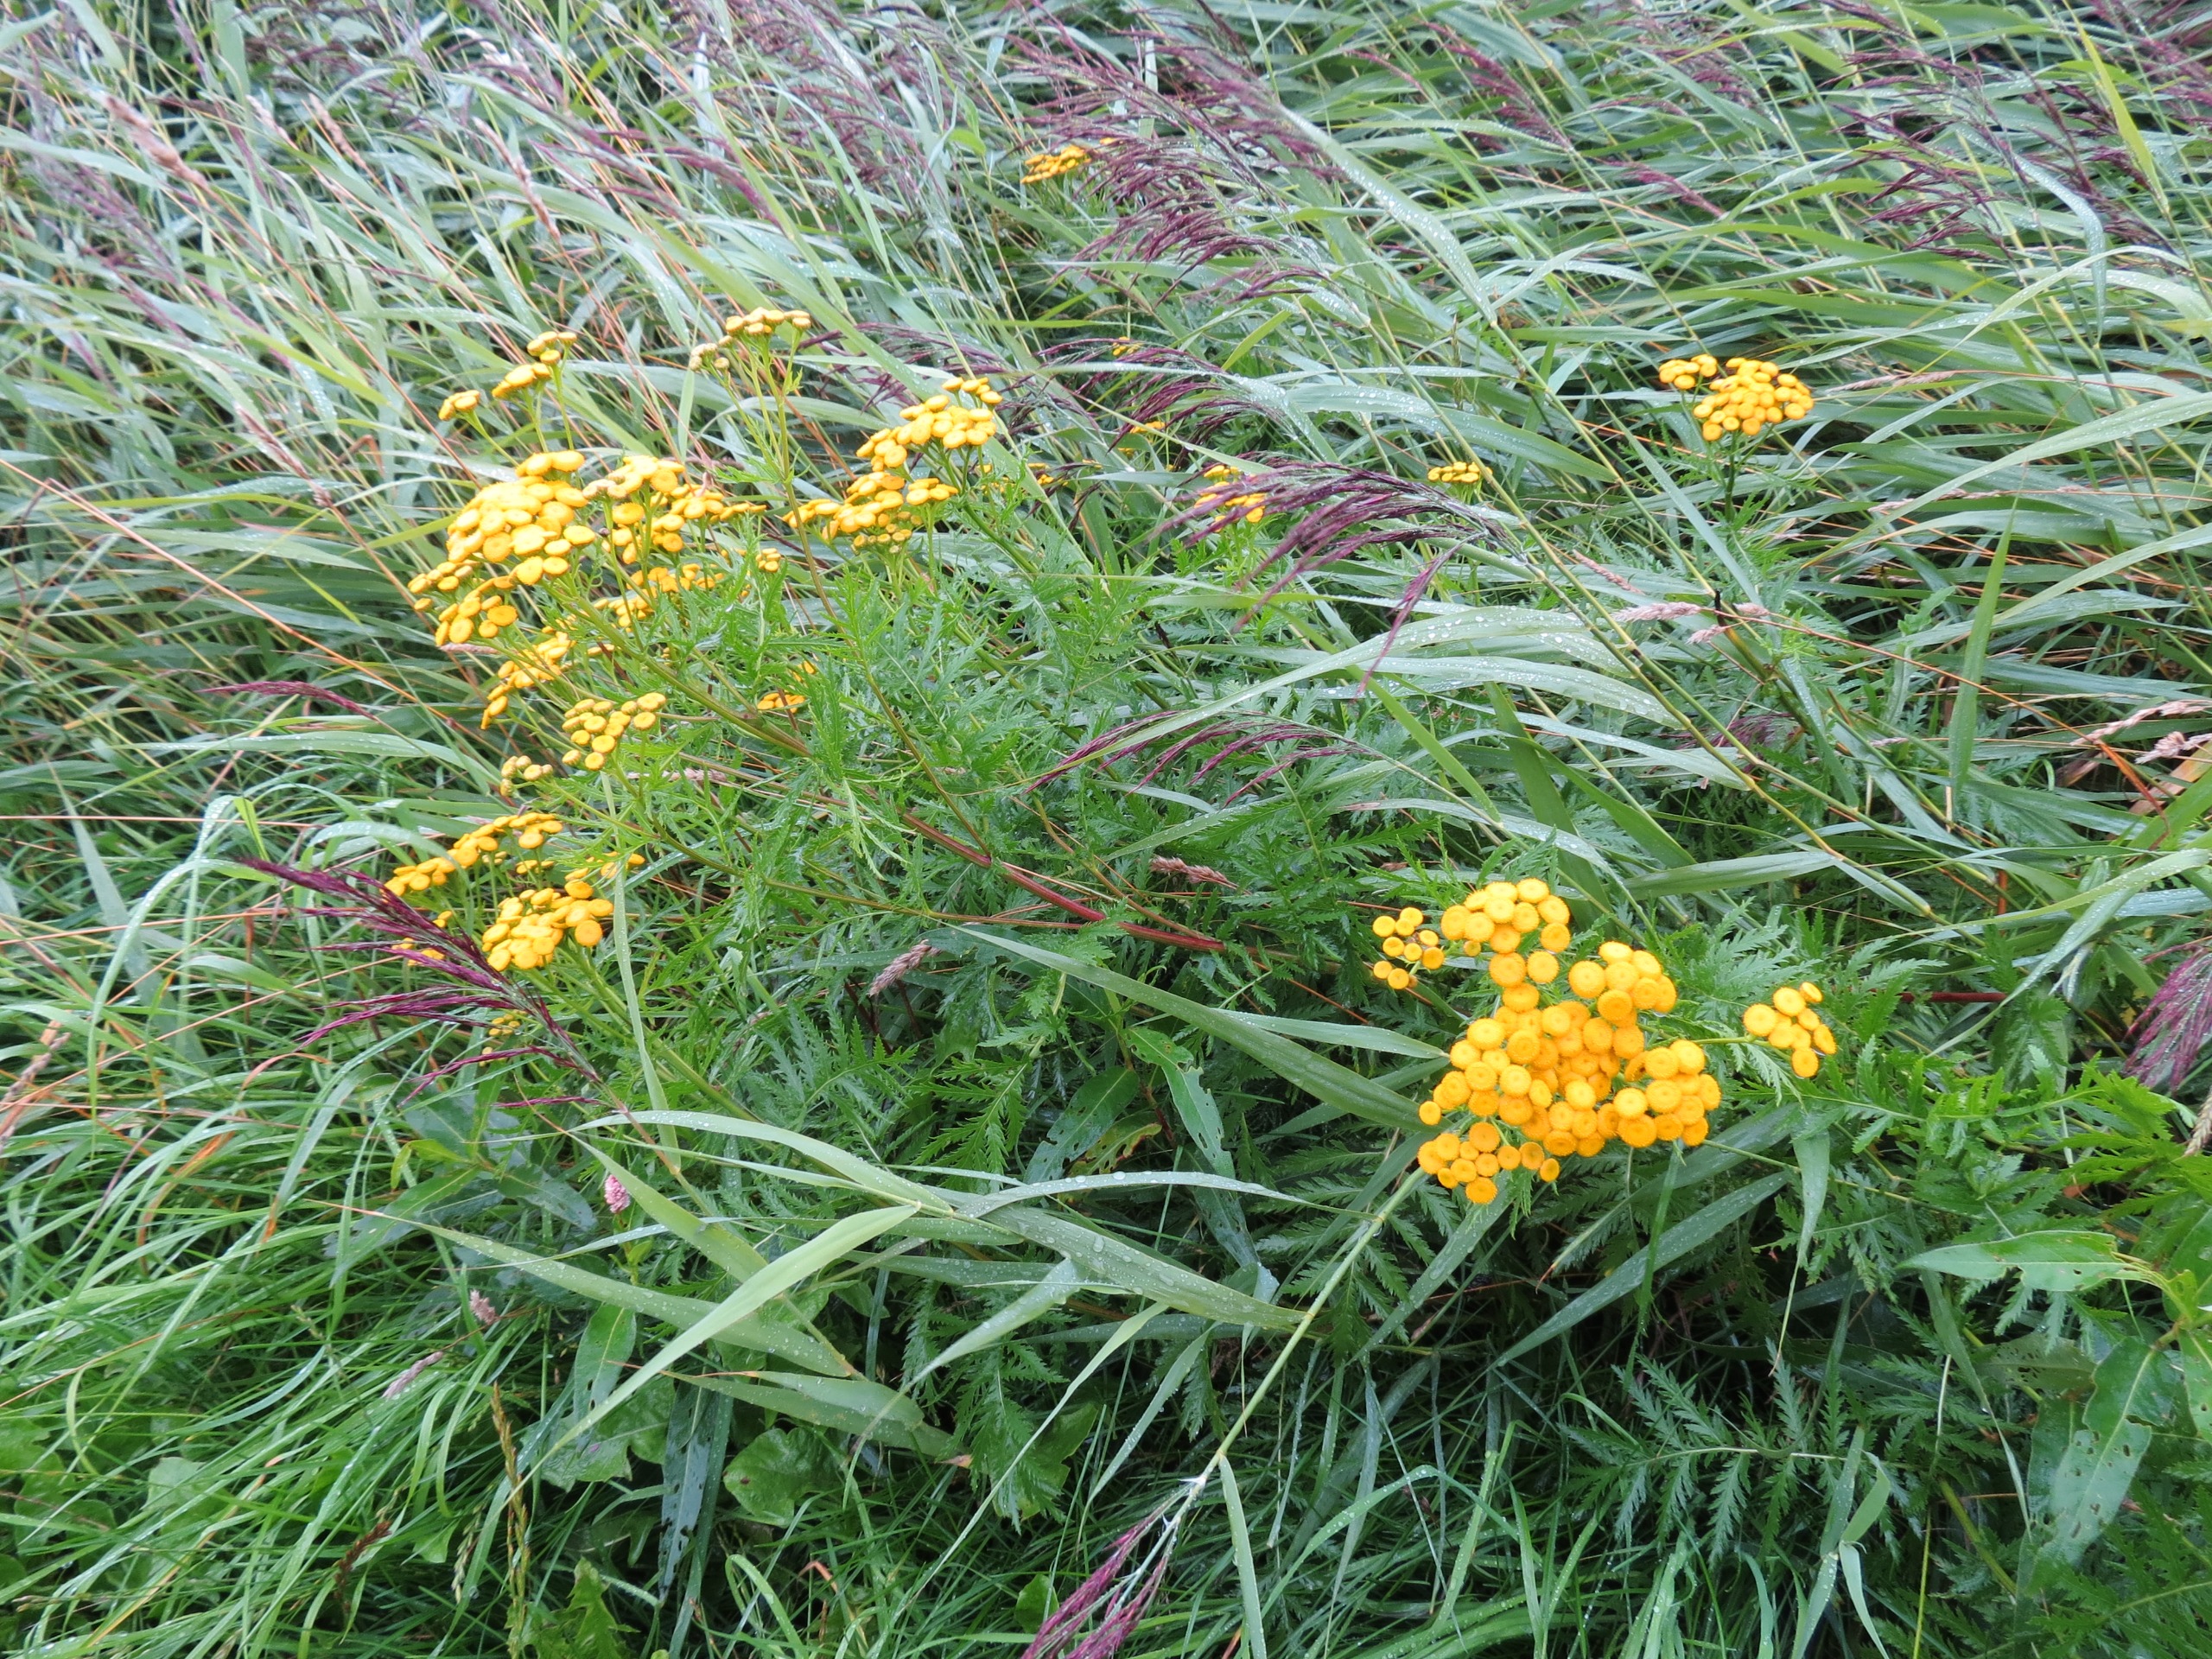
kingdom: Plantae
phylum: Tracheophyta
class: Magnoliopsida
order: Asterales
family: Asteraceae
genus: Tanacetum
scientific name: Tanacetum vulgare
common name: Rejnfan
